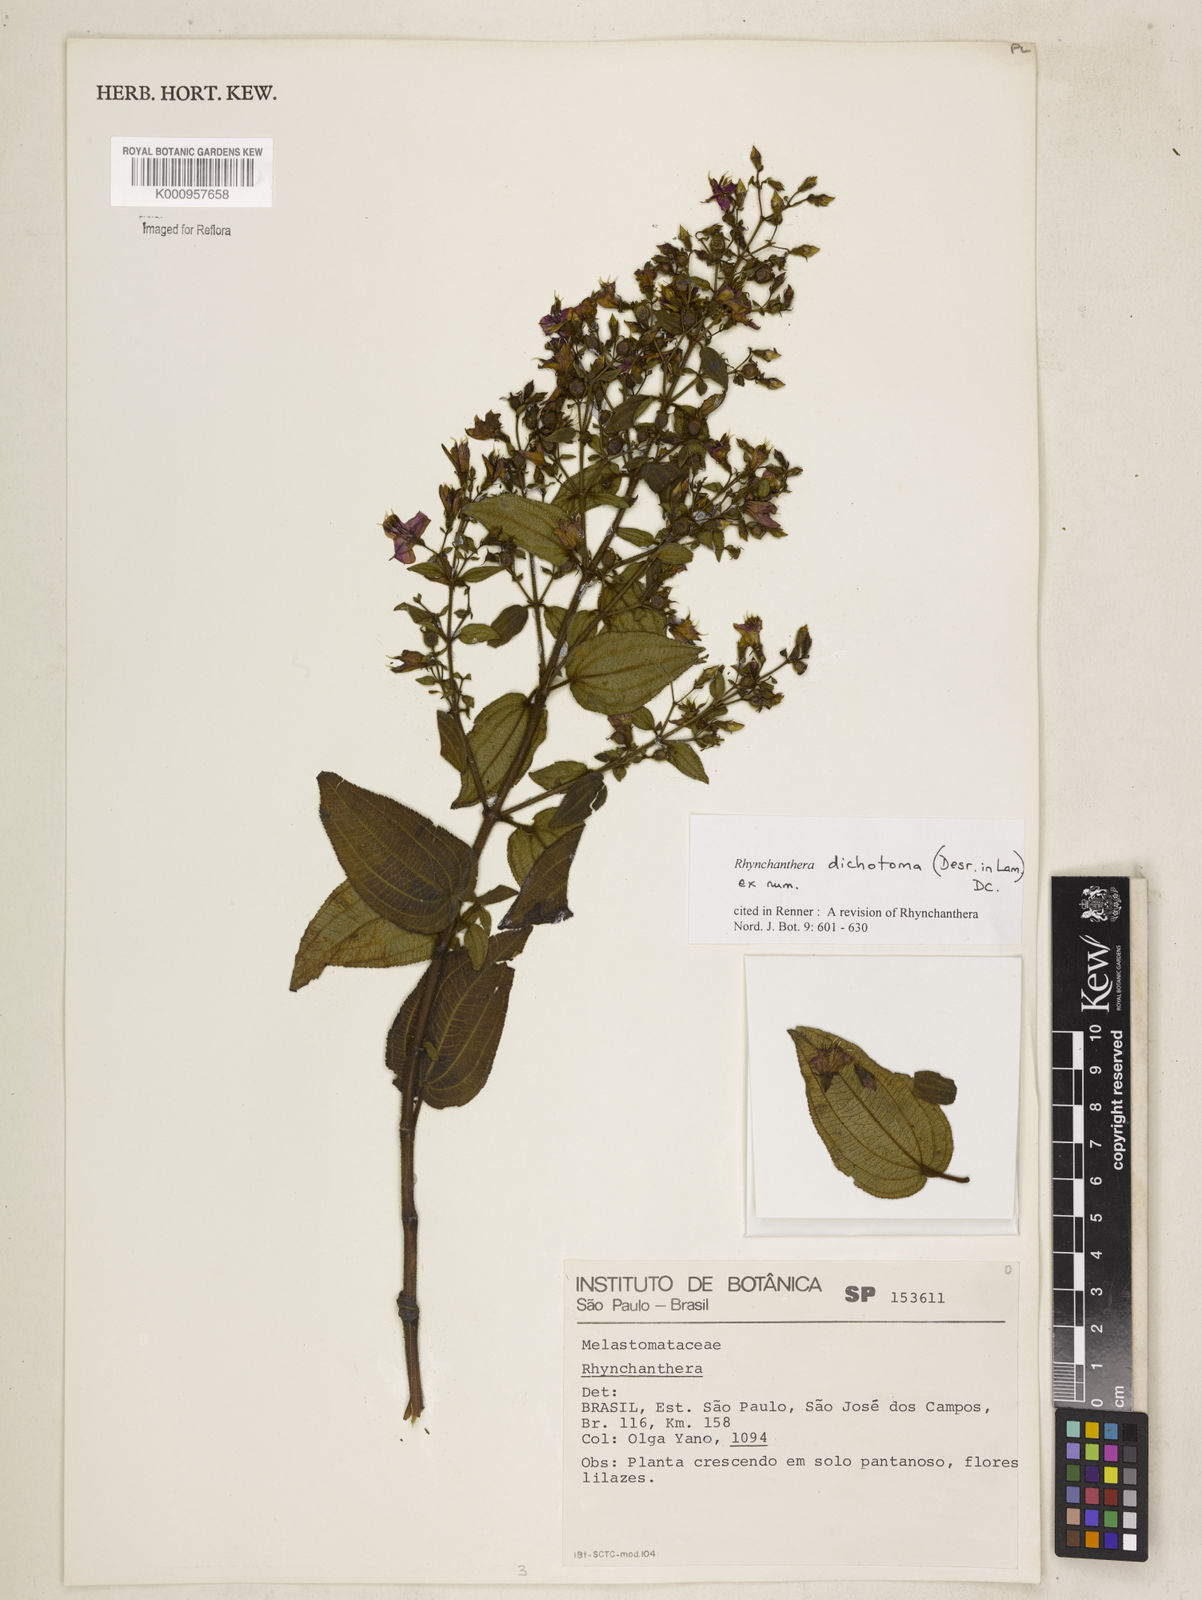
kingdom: Plantae
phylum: Tracheophyta
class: Magnoliopsida
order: Myrtales
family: Melastomataceae
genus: Rhynchanthera
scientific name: Rhynchanthera dichotoma
